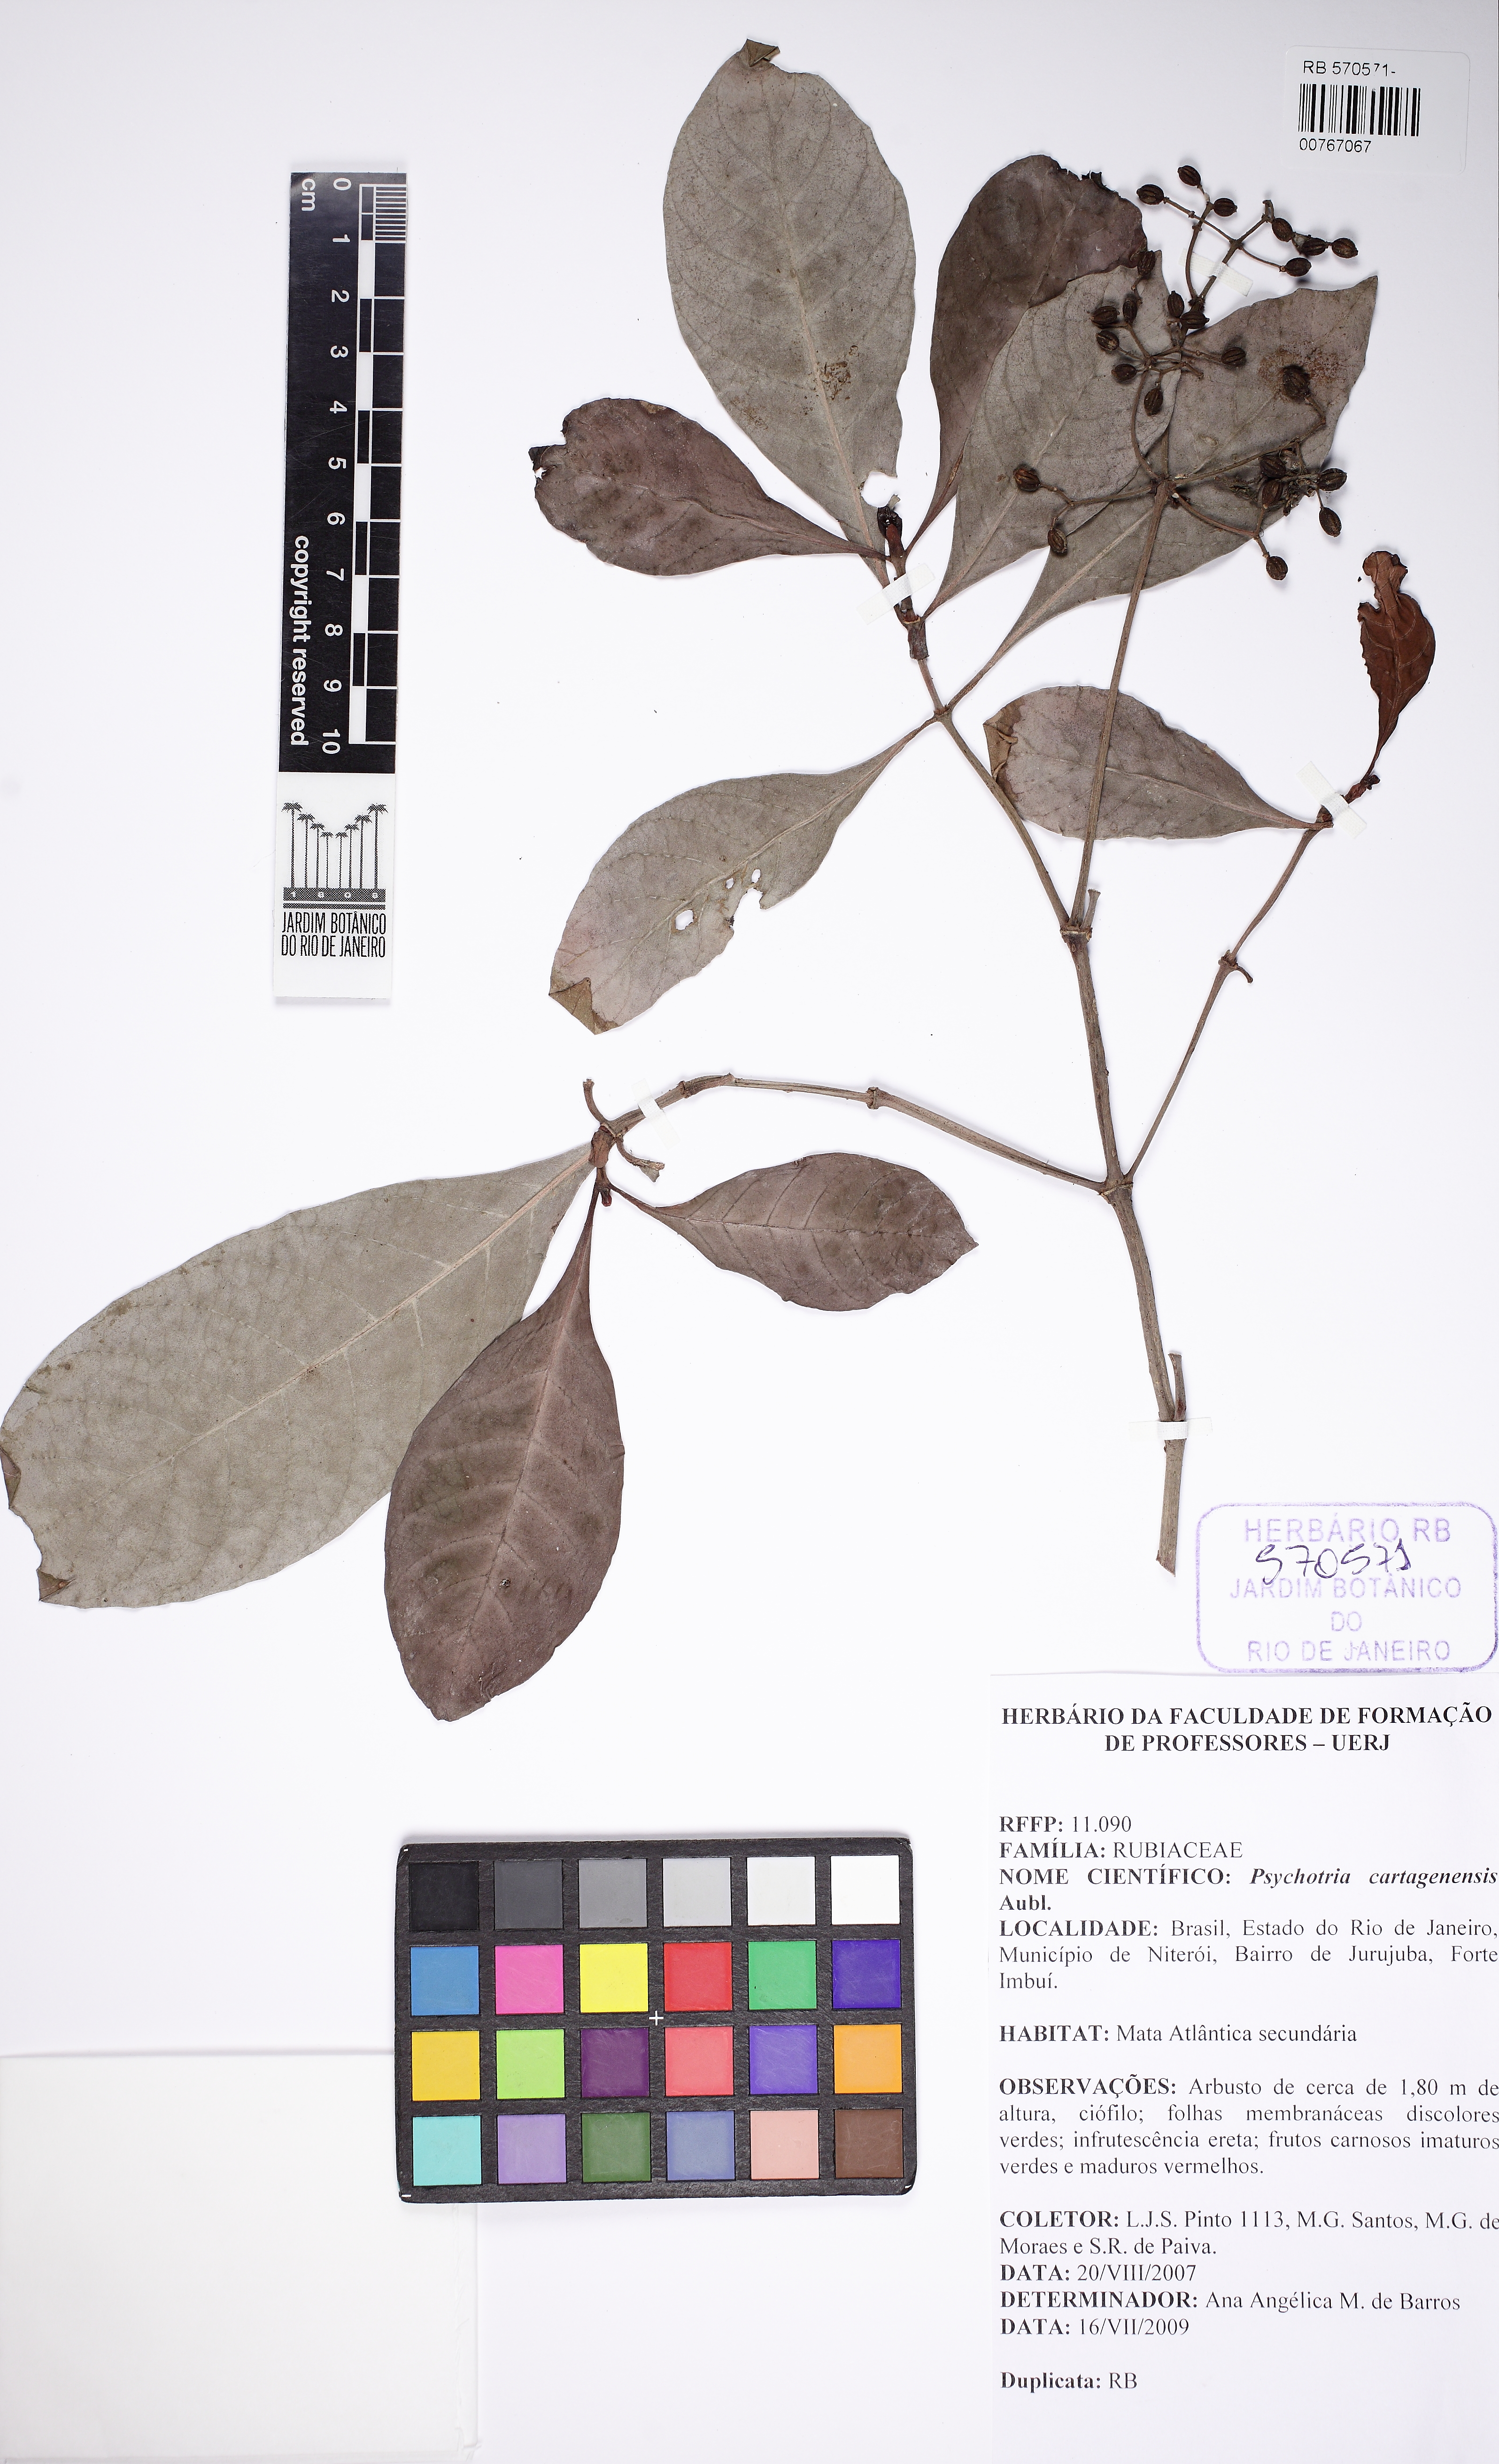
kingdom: Plantae
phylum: Tracheophyta
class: Magnoliopsida
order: Gentianales
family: Rubiaceae
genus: Psychotria
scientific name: Psychotria carthagenensis
